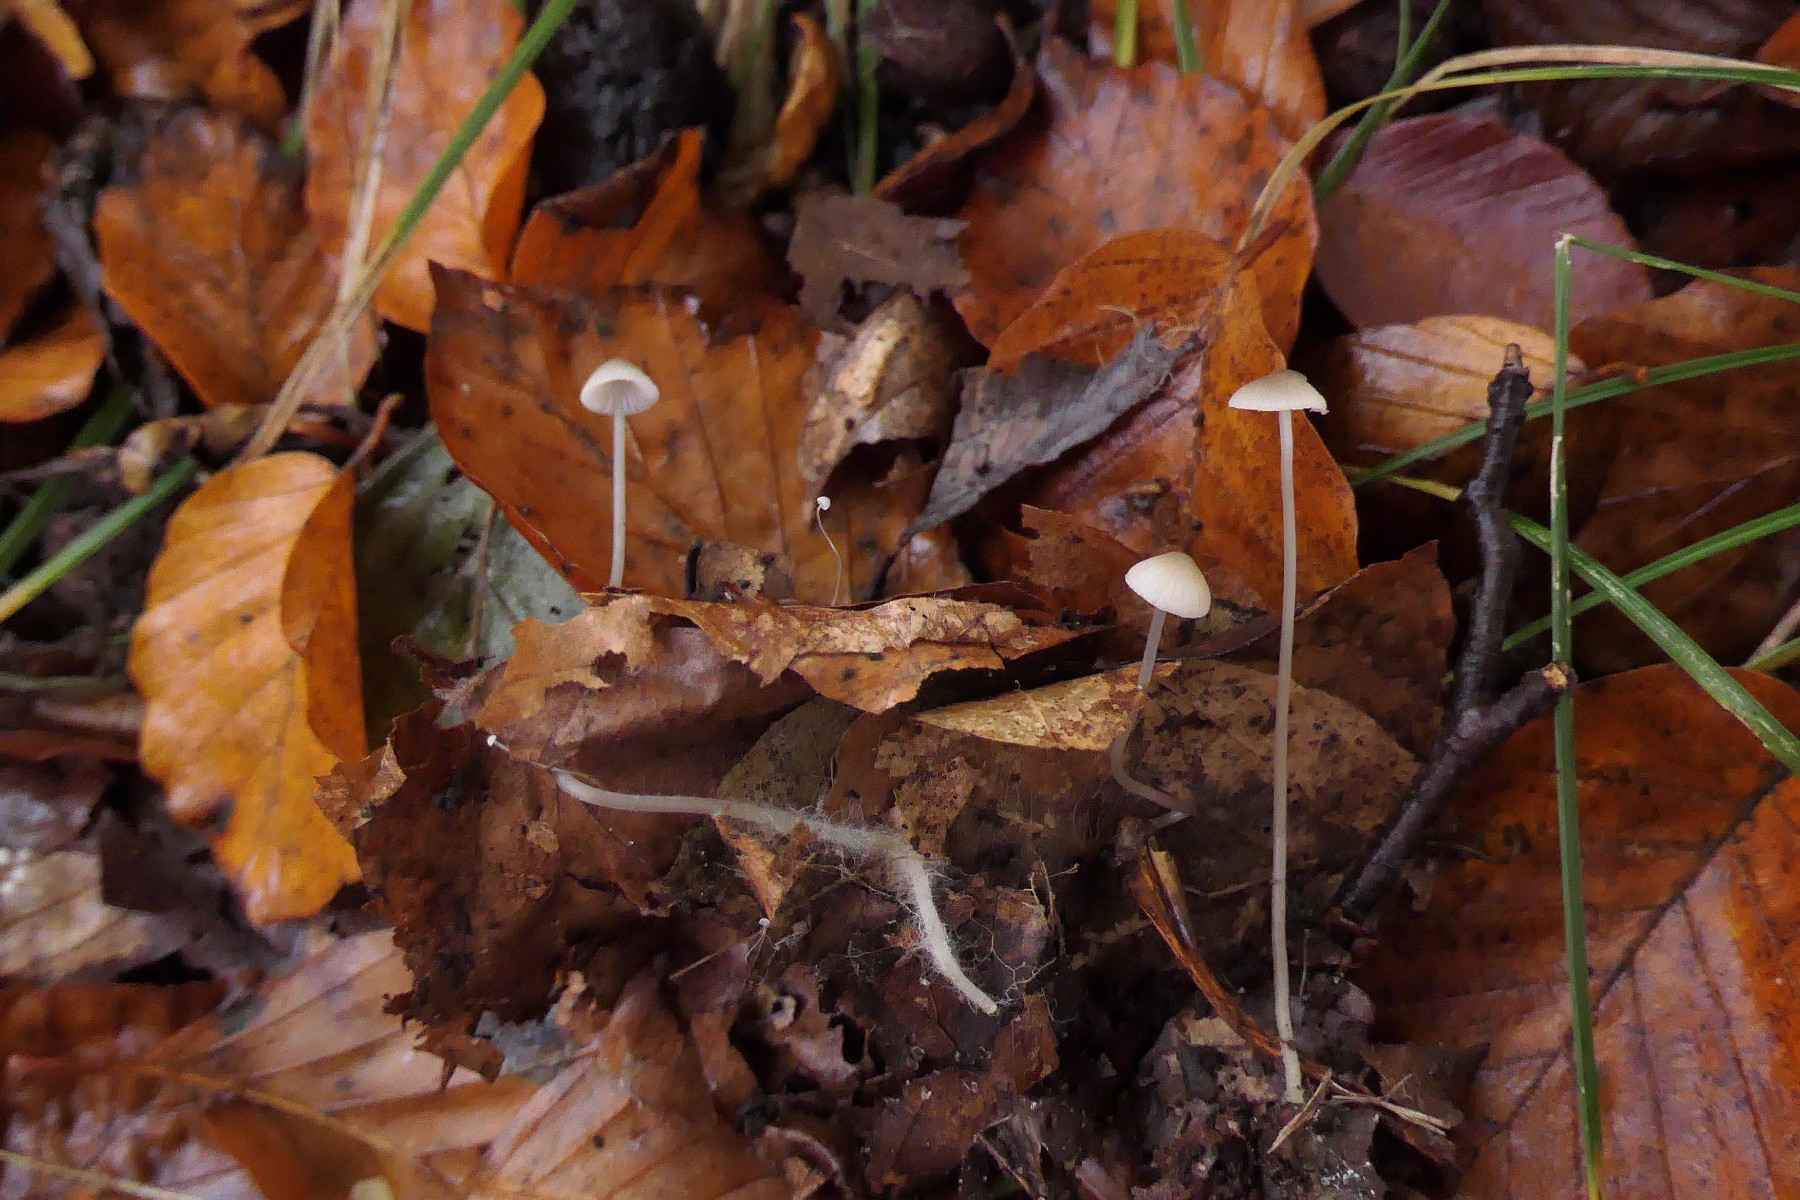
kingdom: Fungi
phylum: Basidiomycota
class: Agaricomycetes
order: Agaricales
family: Mycenaceae
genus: Mycena
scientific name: Mycena vitilis
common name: blankstokket huesvamp
